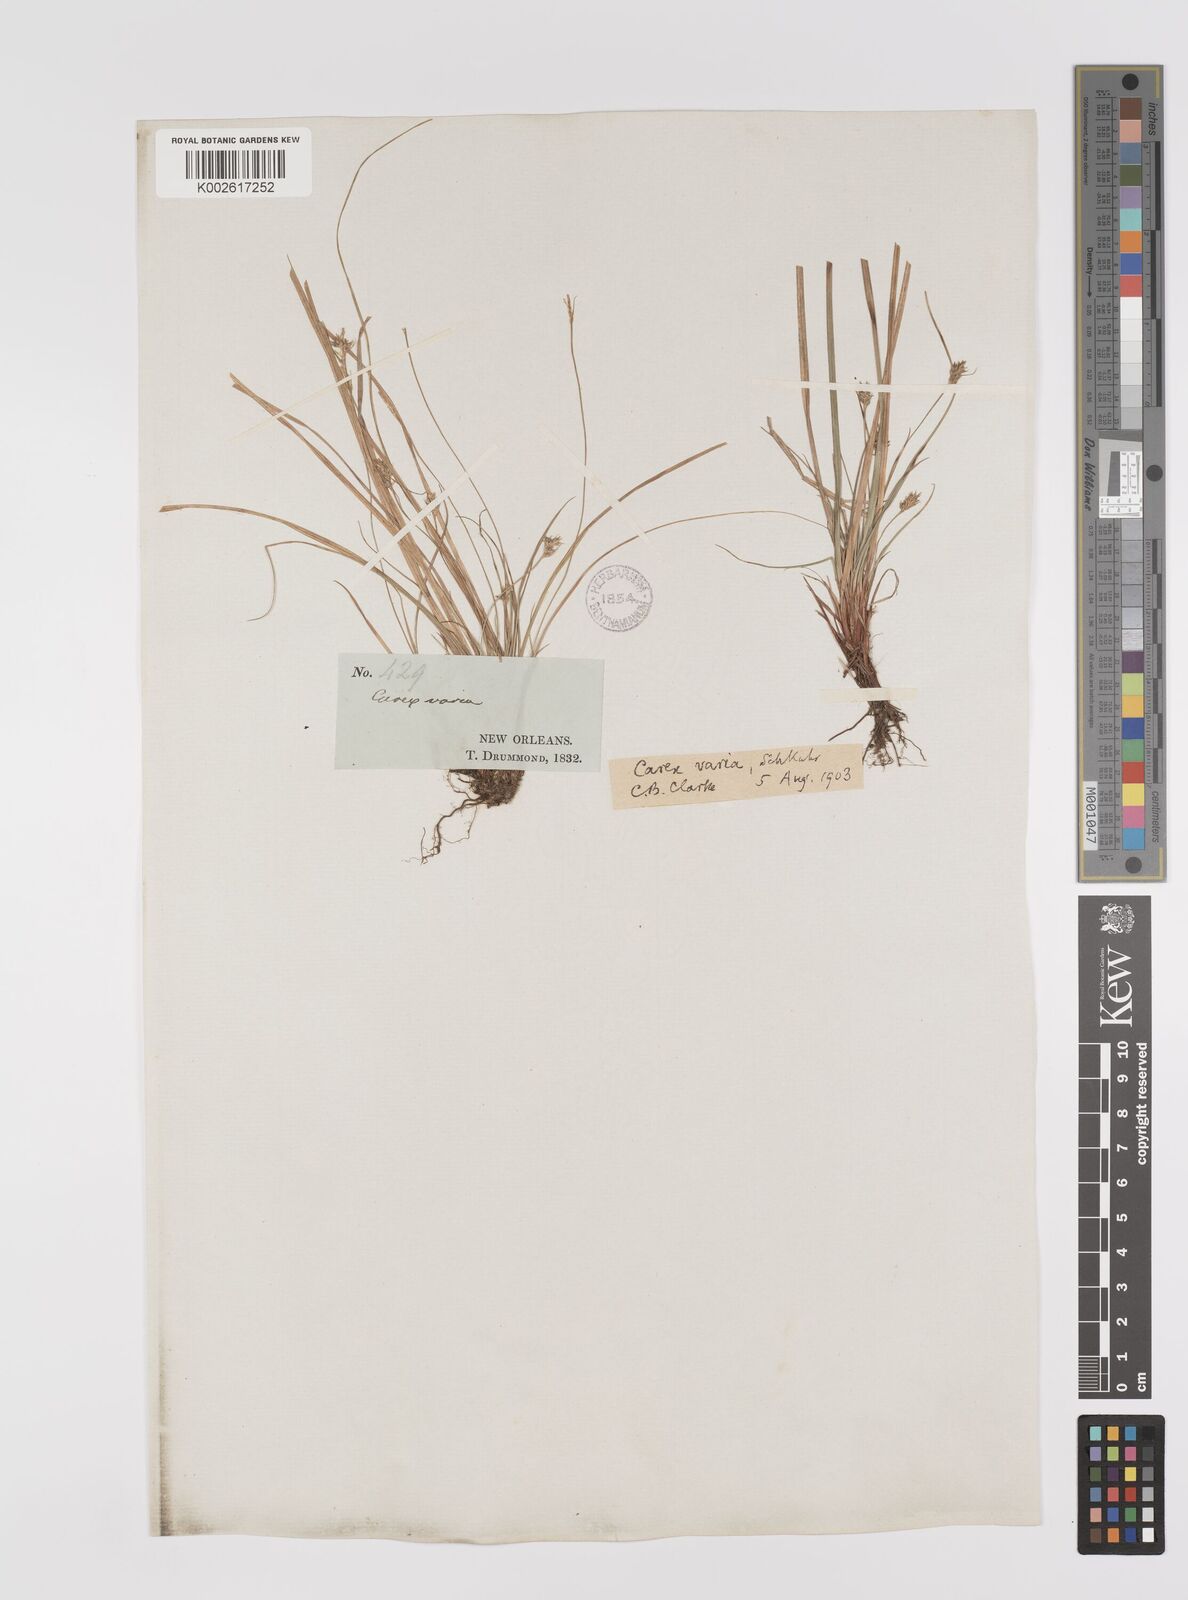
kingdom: Plantae
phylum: Tracheophyta
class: Liliopsida
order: Poales
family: Cyperaceae
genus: Carex
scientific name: Carex albicans
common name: Bellow-beaked sedge
